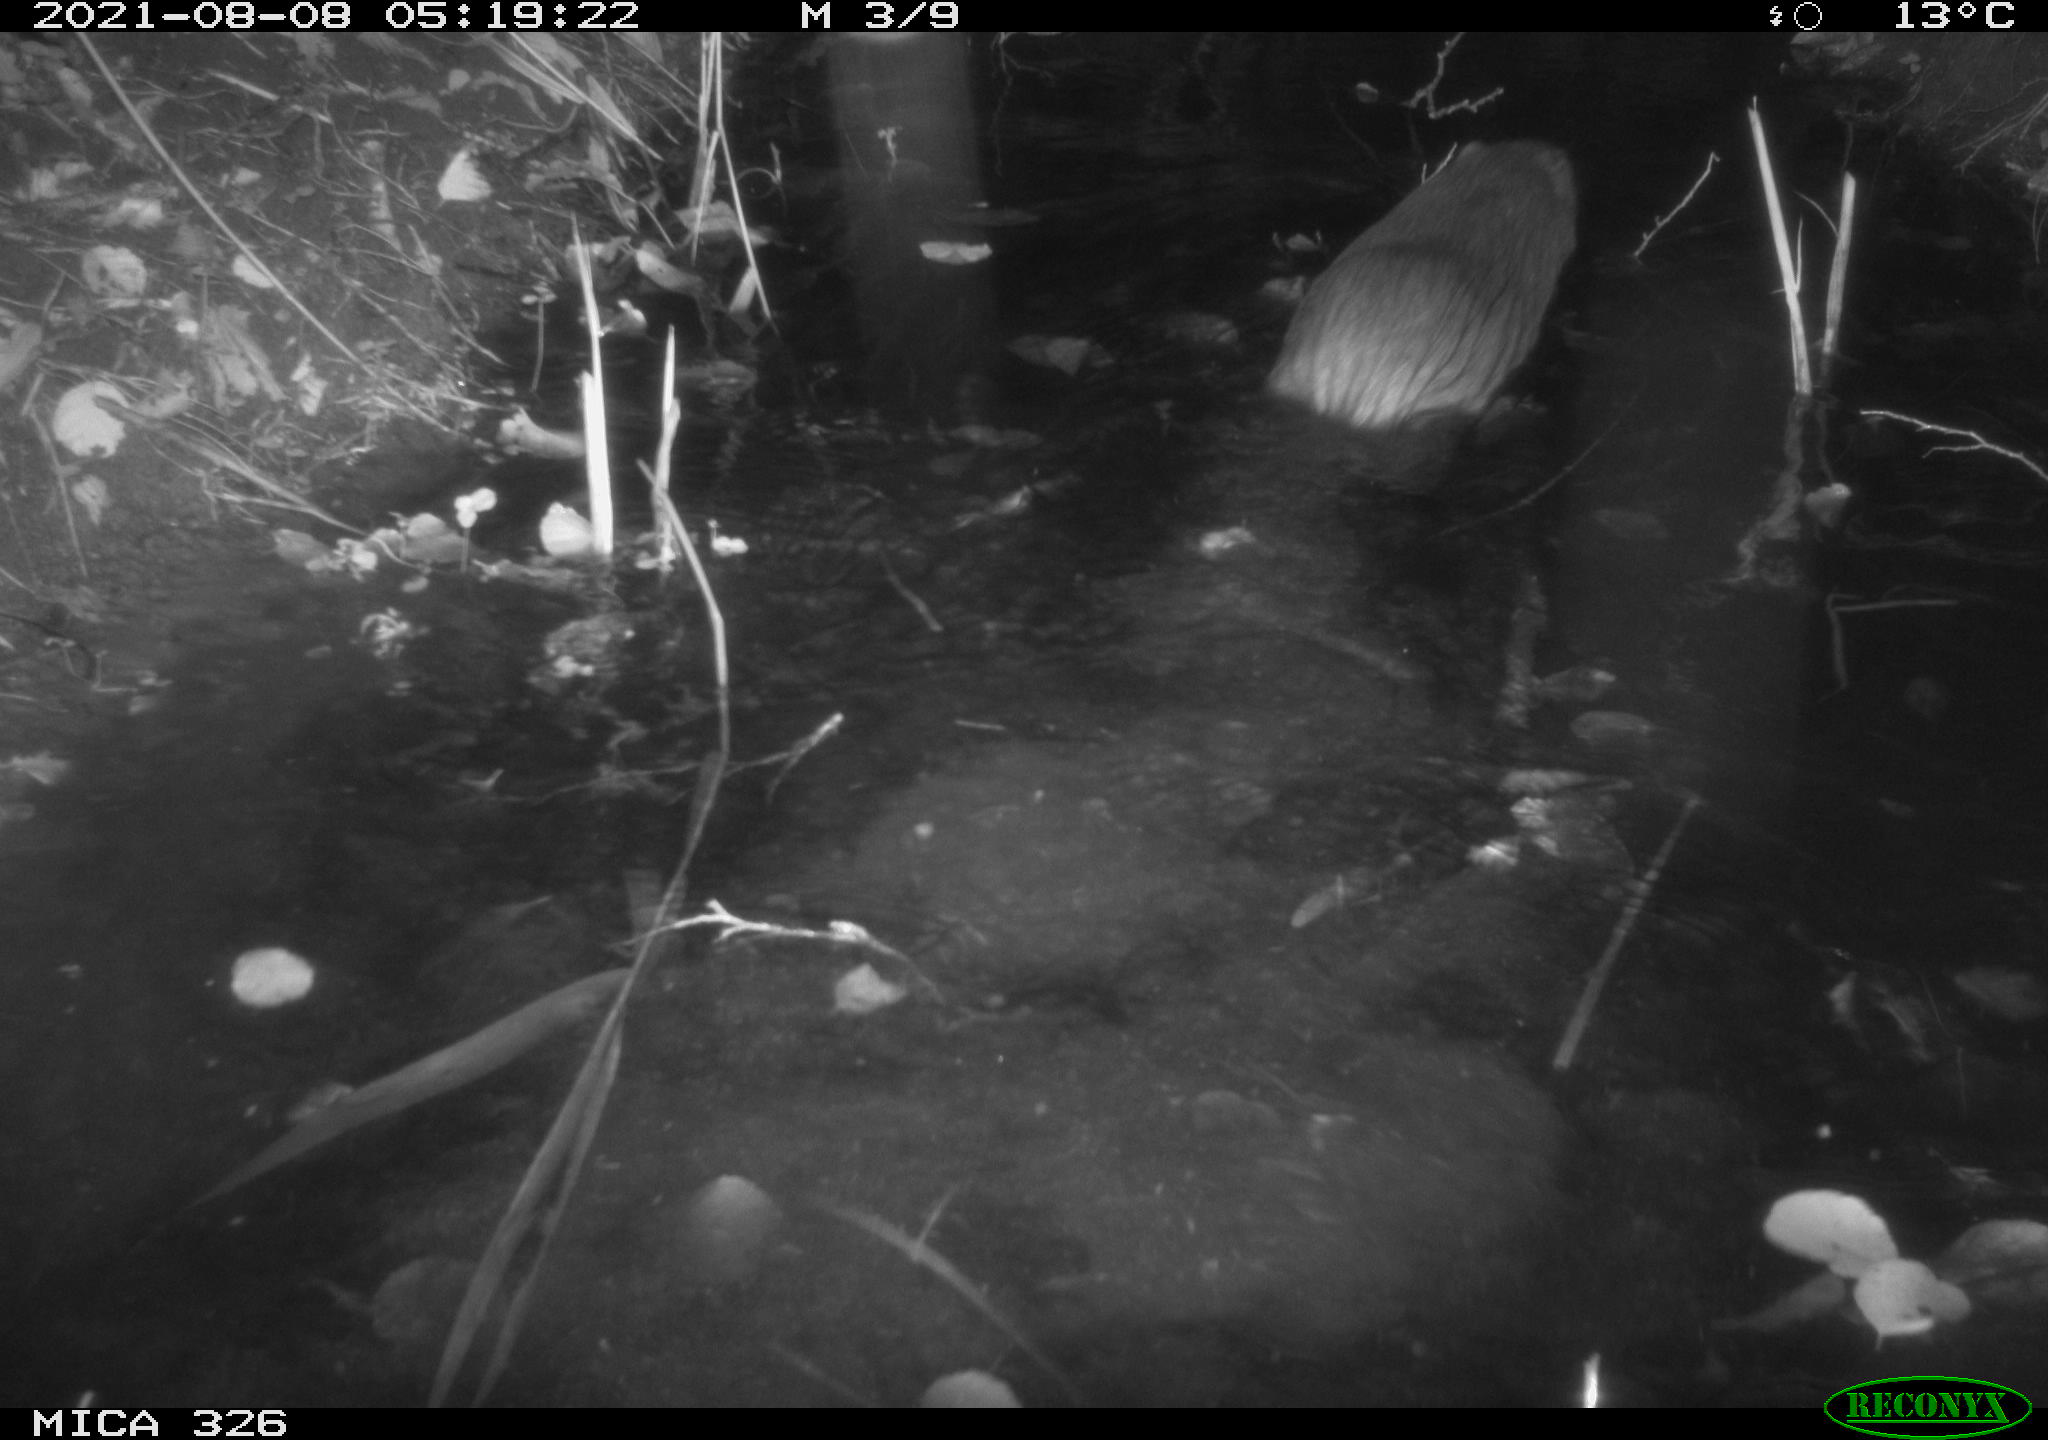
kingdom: Animalia
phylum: Chordata
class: Mammalia
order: Rodentia
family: Myocastoridae
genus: Myocastor
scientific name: Myocastor coypus
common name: Coypu
